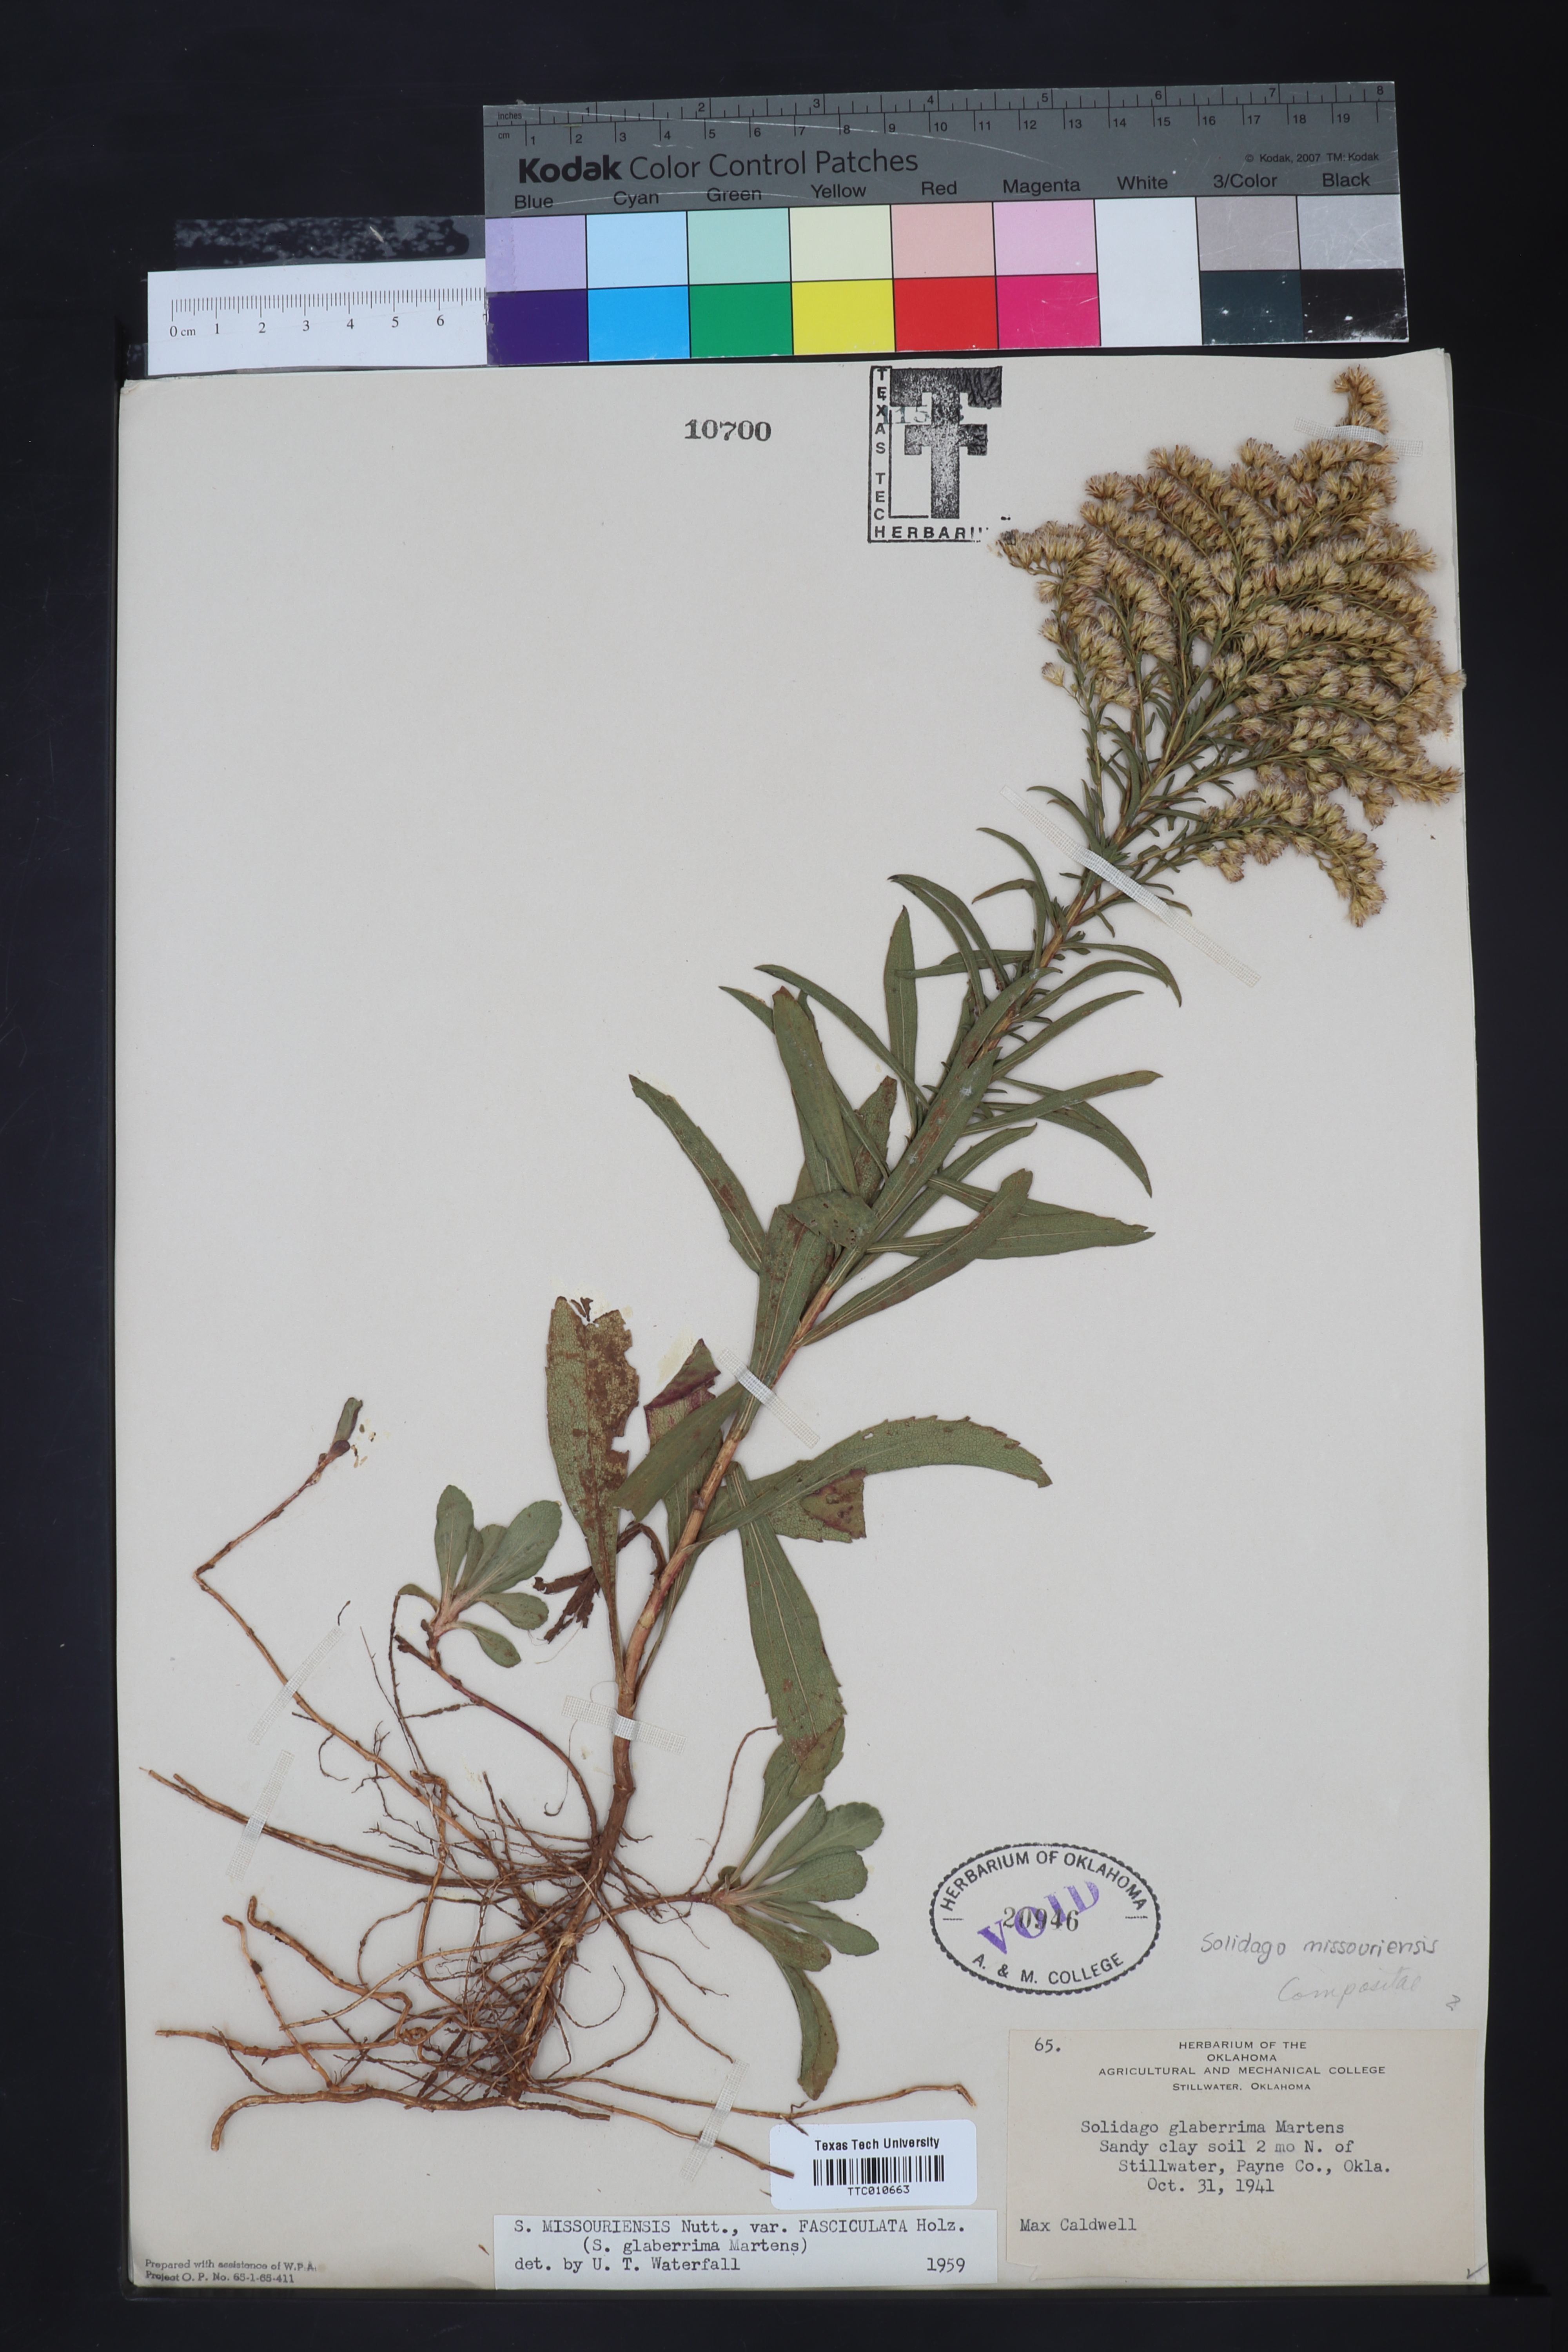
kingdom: Plantae
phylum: Tracheophyta
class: Magnoliopsida
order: Asterales
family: Asteraceae
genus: Solidago
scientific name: Solidago missouriensis
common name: Prairie goldenrod
